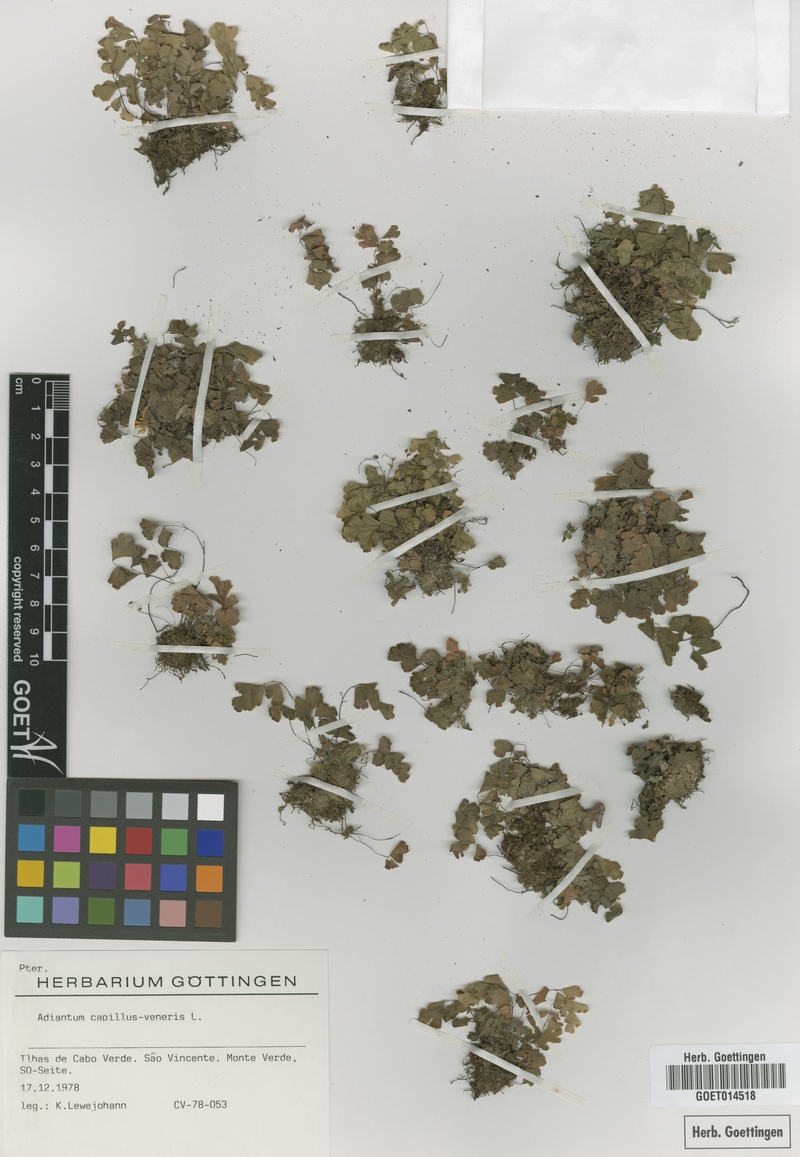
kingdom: Plantae
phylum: Tracheophyta
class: Polypodiopsida
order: Polypodiales
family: Pteridaceae
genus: Adiantum
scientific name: Adiantum capillus-veneris
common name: Maidenhair fern
